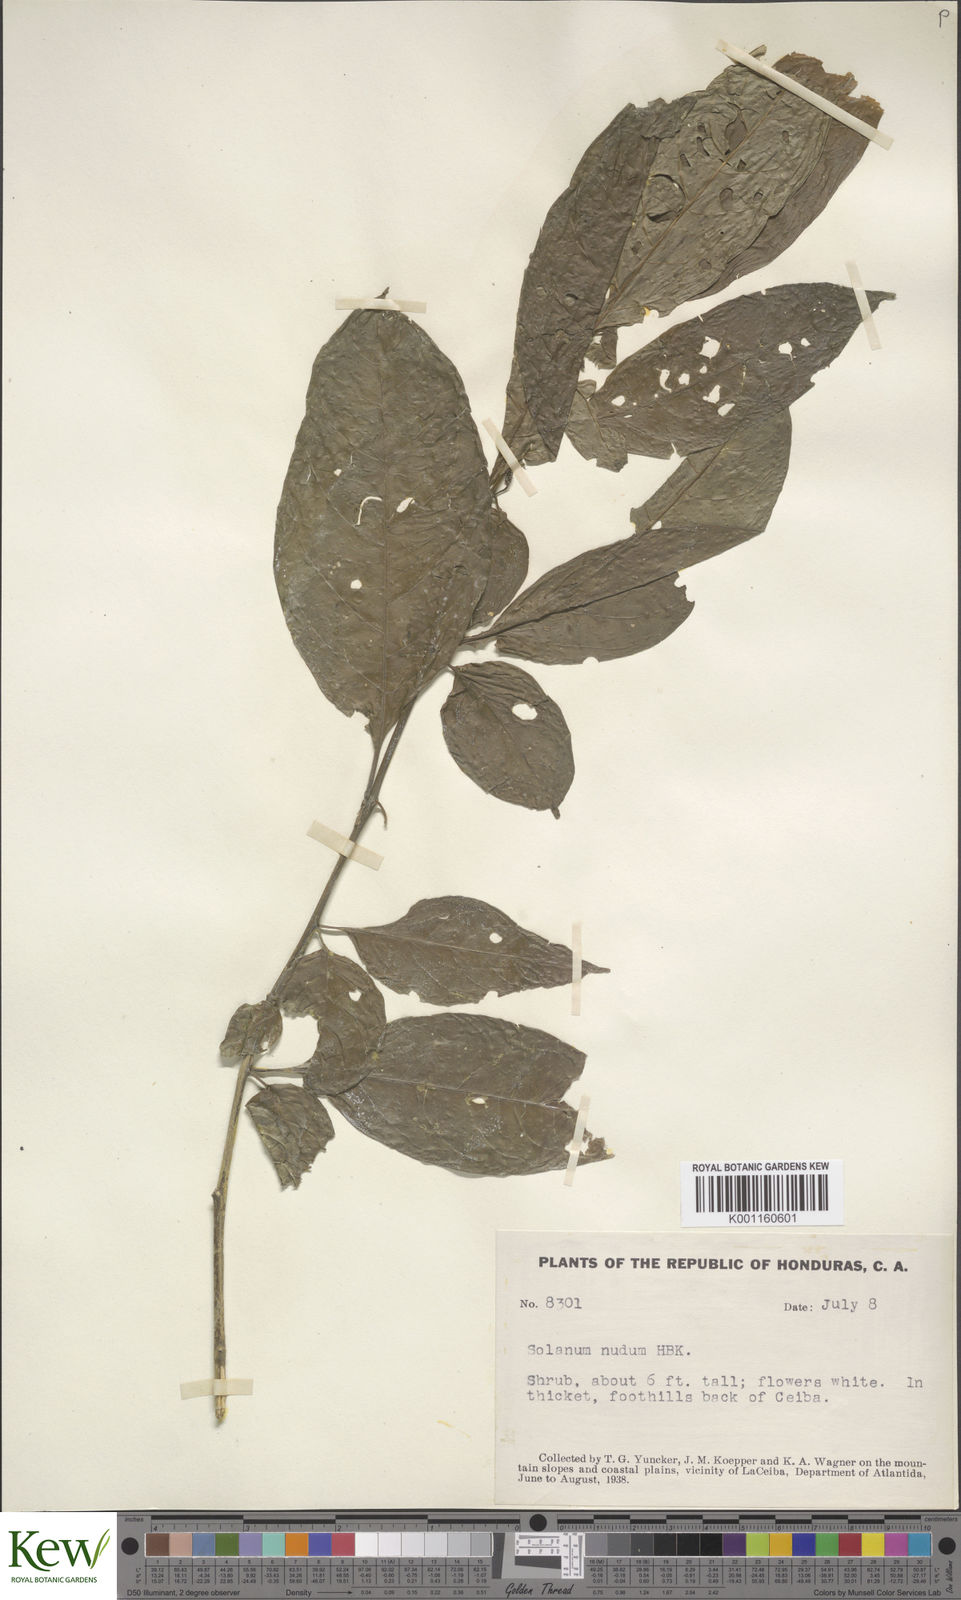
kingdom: Plantae
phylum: Tracheophyta
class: Magnoliopsida
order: Solanales
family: Solanaceae
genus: Solanum
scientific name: Solanum nudum
